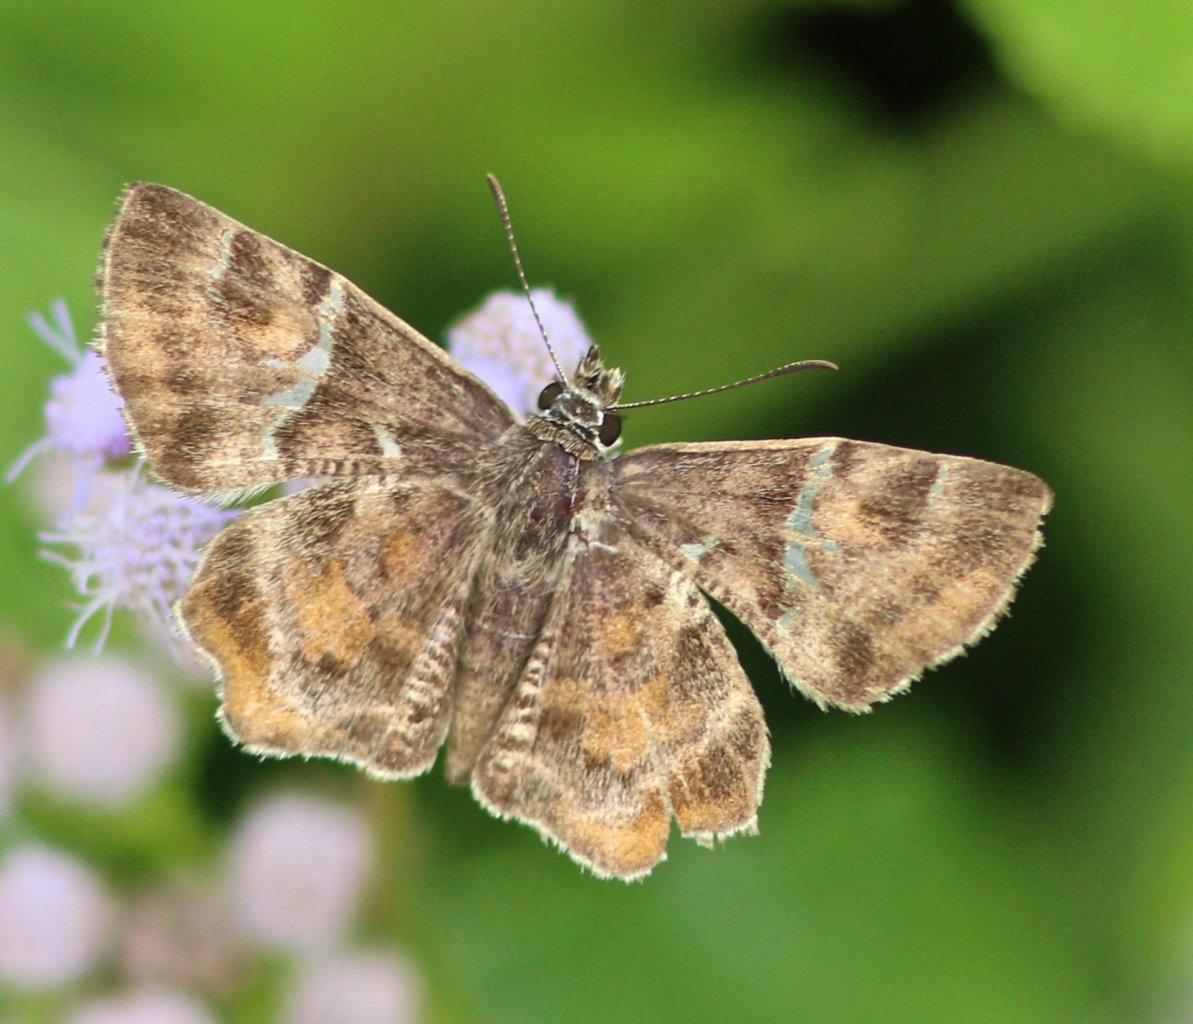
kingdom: Animalia
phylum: Arthropoda
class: Insecta
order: Lepidoptera
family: Hesperiidae
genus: Systasea
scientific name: Systasea pulverulenta
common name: Texas Powdered-Skipper
